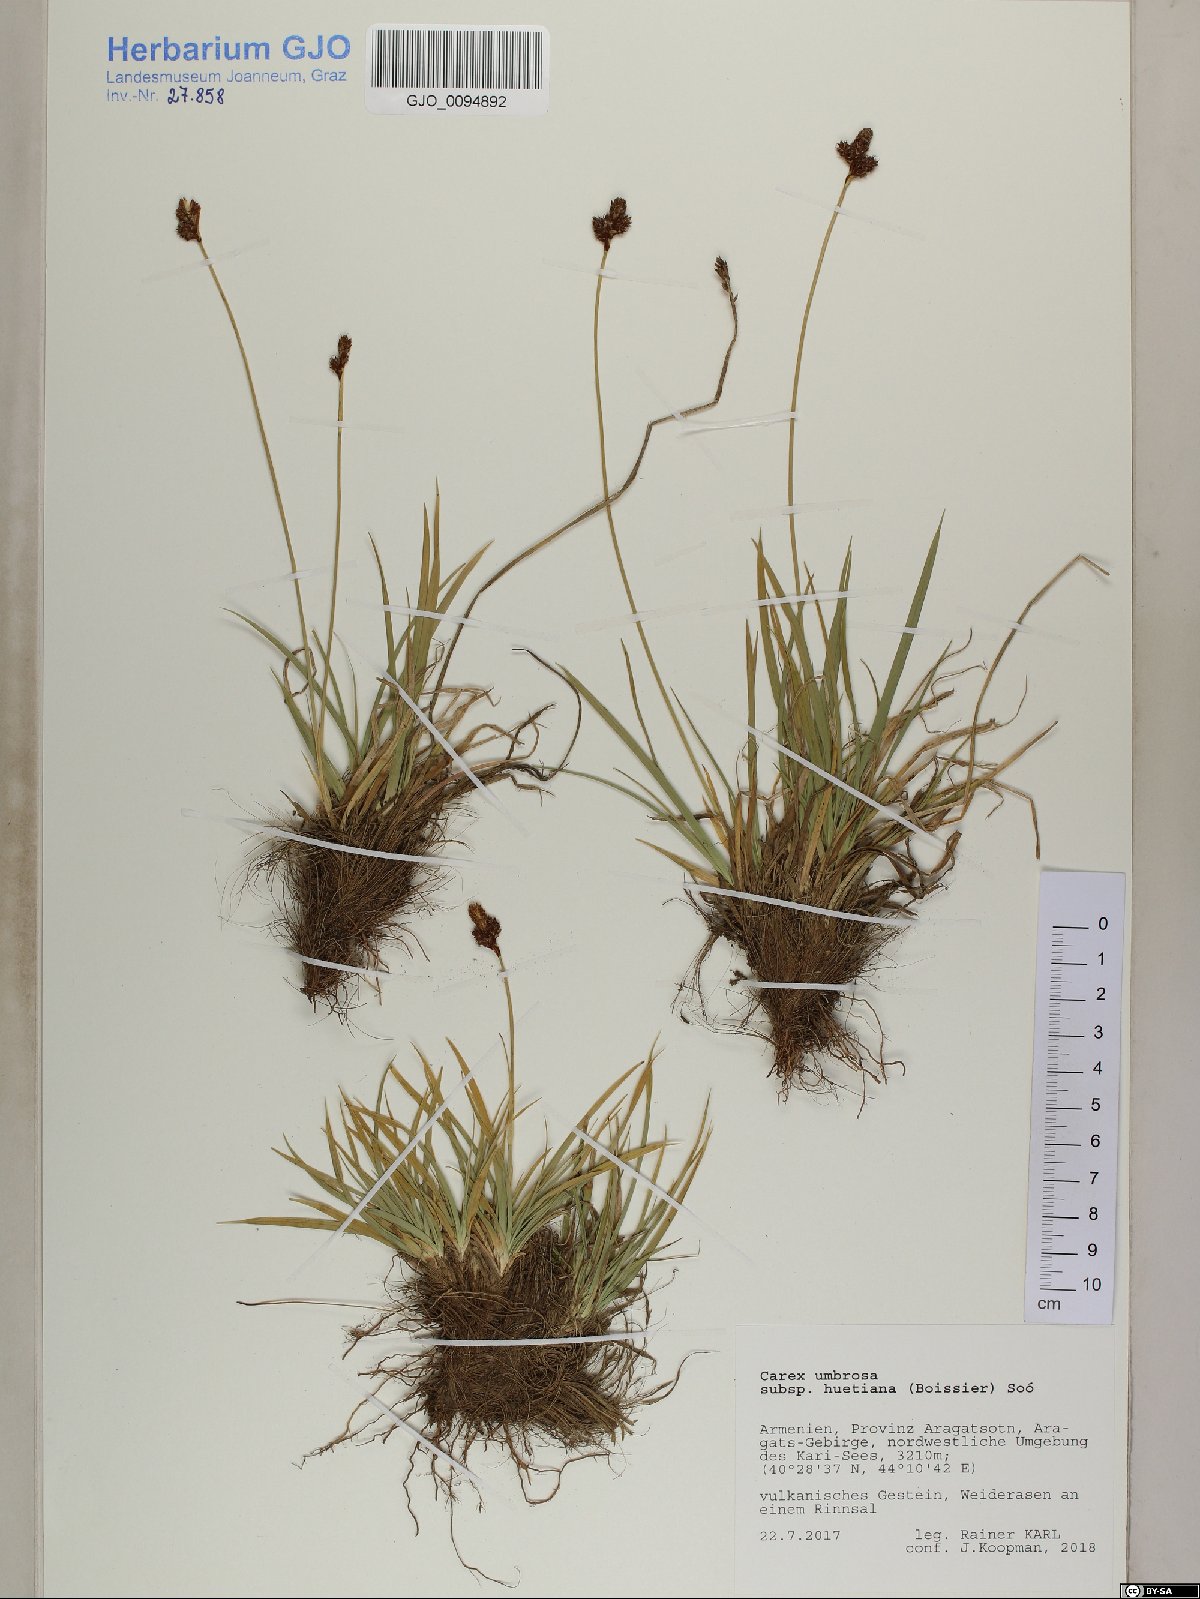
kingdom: Plantae
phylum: Tracheophyta
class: Liliopsida
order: Poales
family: Cyperaceae
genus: Carex
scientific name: Carex umbrosa
